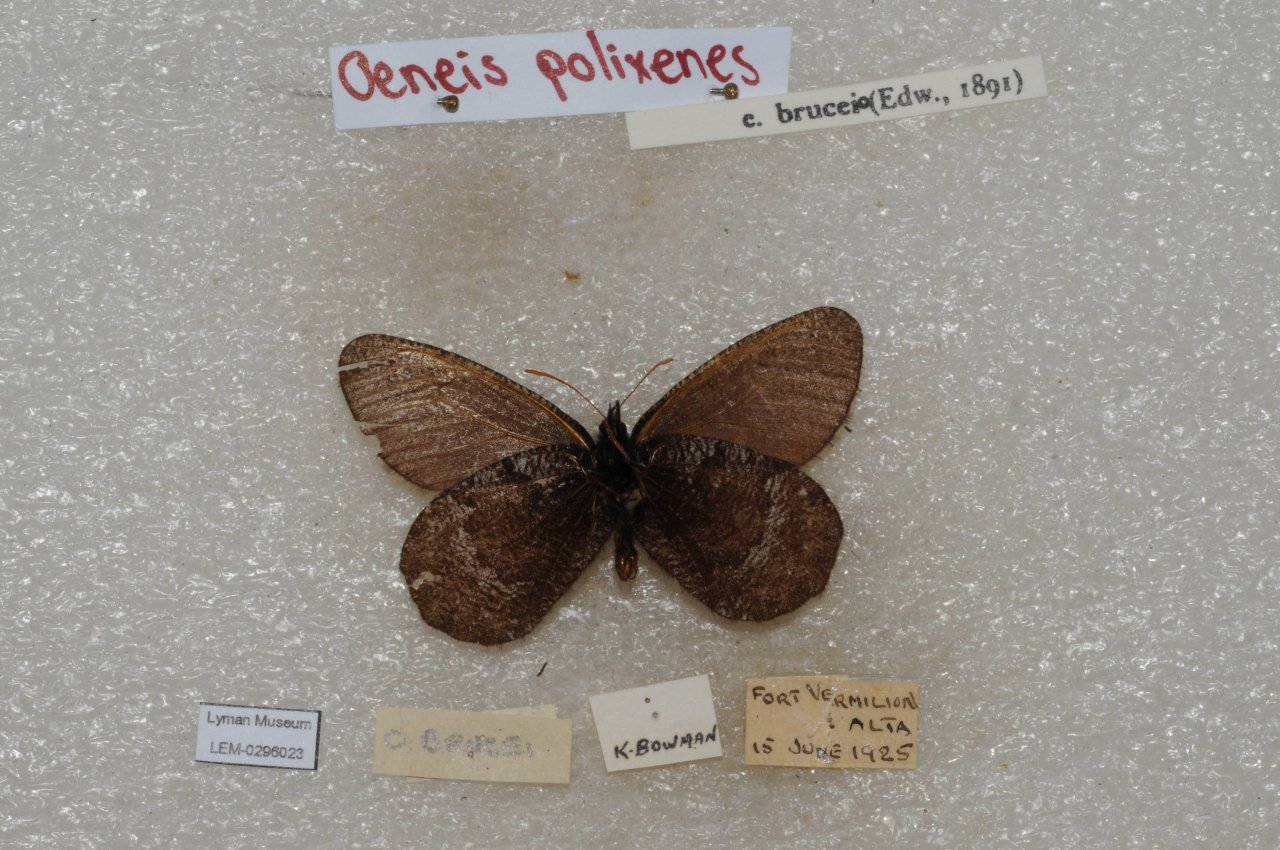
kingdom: Animalia
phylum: Arthropoda
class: Insecta
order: Lepidoptera
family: Nymphalidae
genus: Oeneis
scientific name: Oeneis bore
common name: Polixenes Arctic
